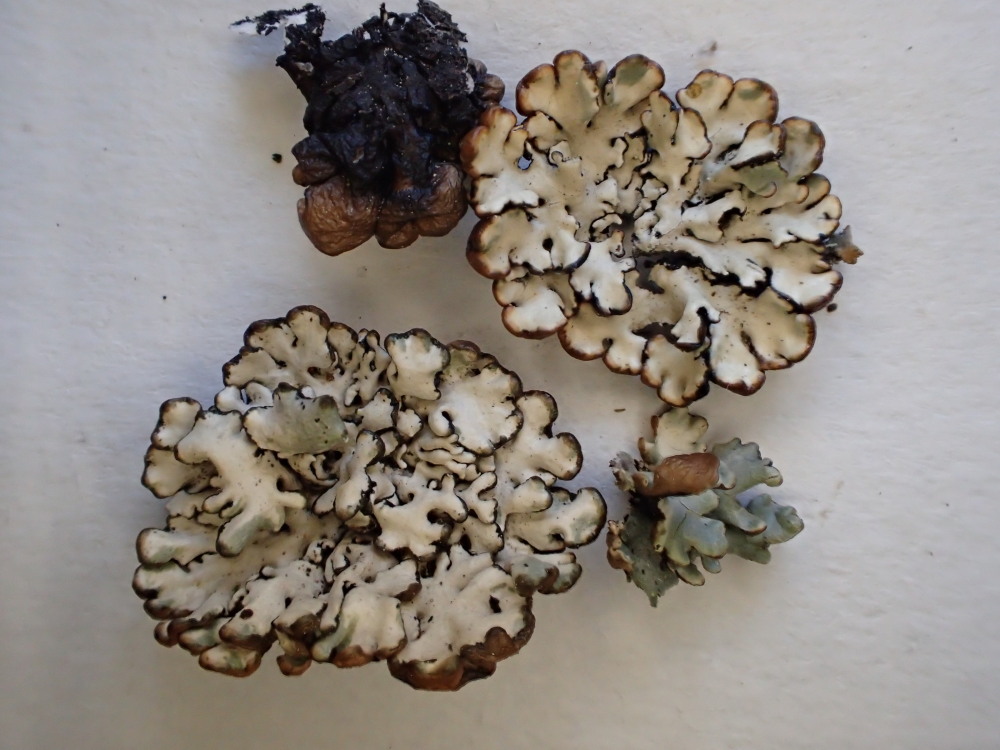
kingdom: Fungi
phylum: Ascomycota
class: Lecanoromycetes
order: Lecanorales
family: Parmeliaceae
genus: Hypogymnia
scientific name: Hypogymnia physodes
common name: almindelig kvistlav
